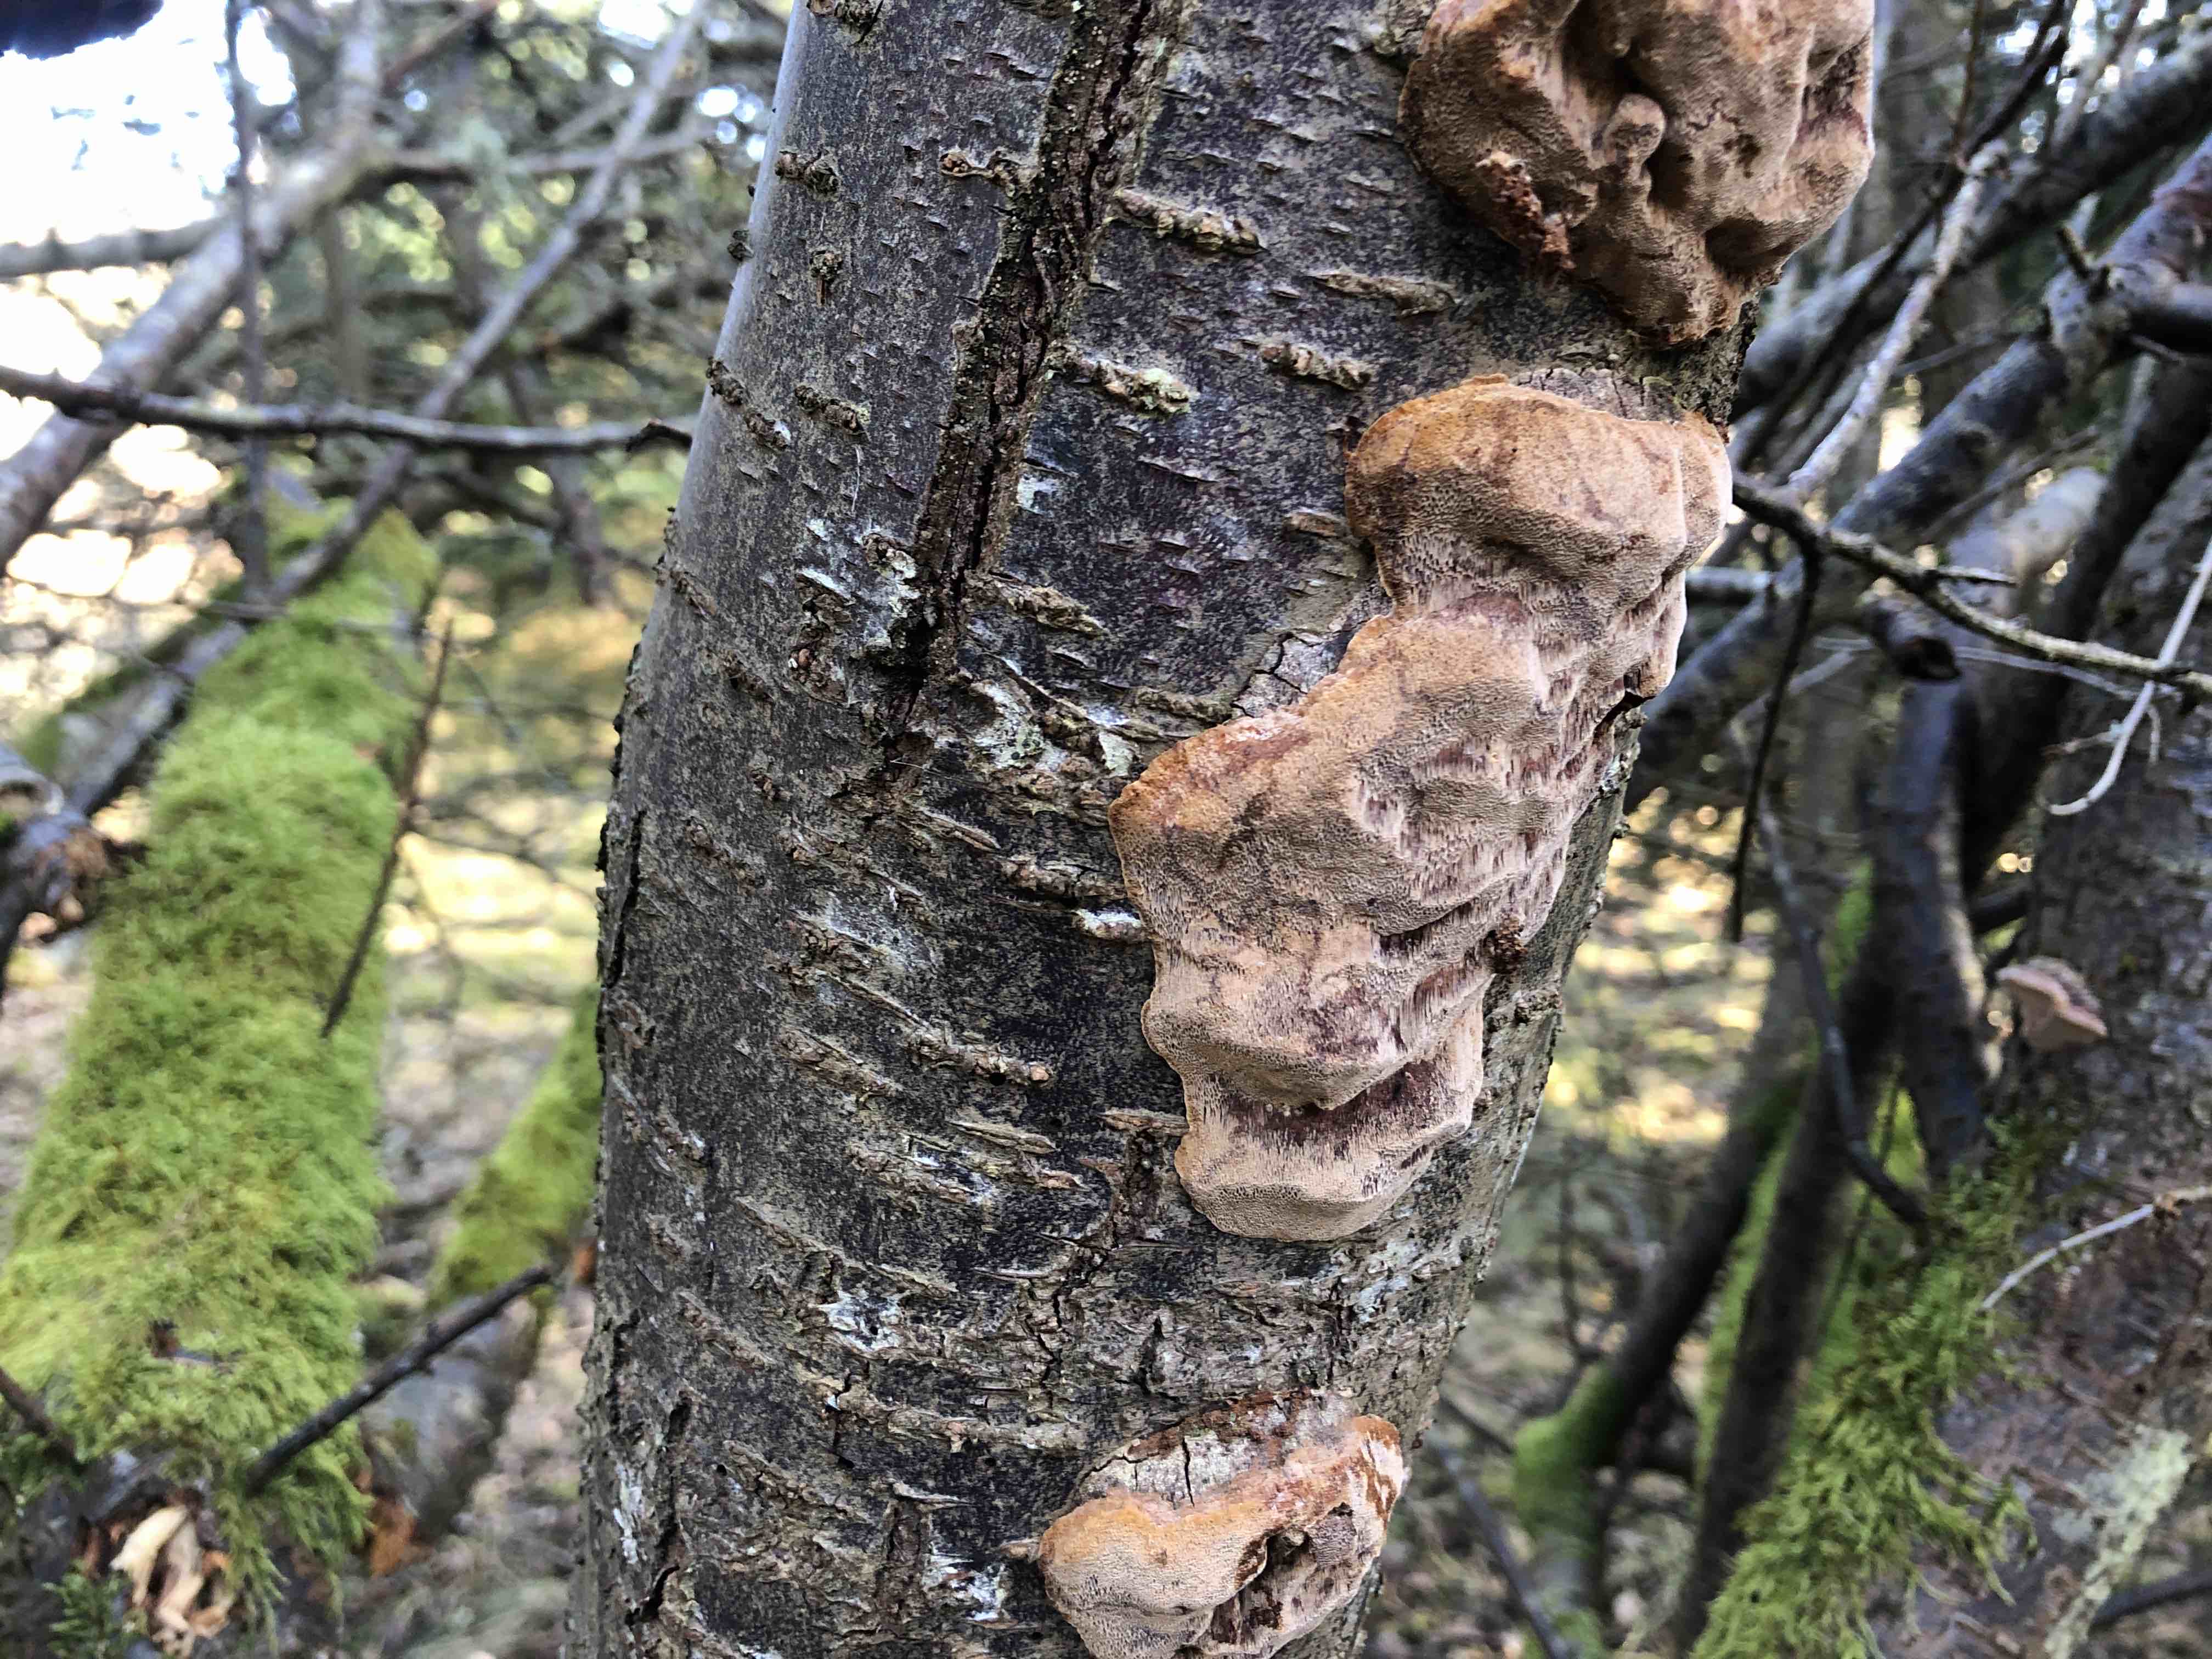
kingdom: Fungi
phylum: Basidiomycota
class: Agaricomycetes
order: Hymenochaetales
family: Hymenochaetaceae
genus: Phellinus
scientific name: Phellinus pomaceus
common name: blomme-ildporesvamp
